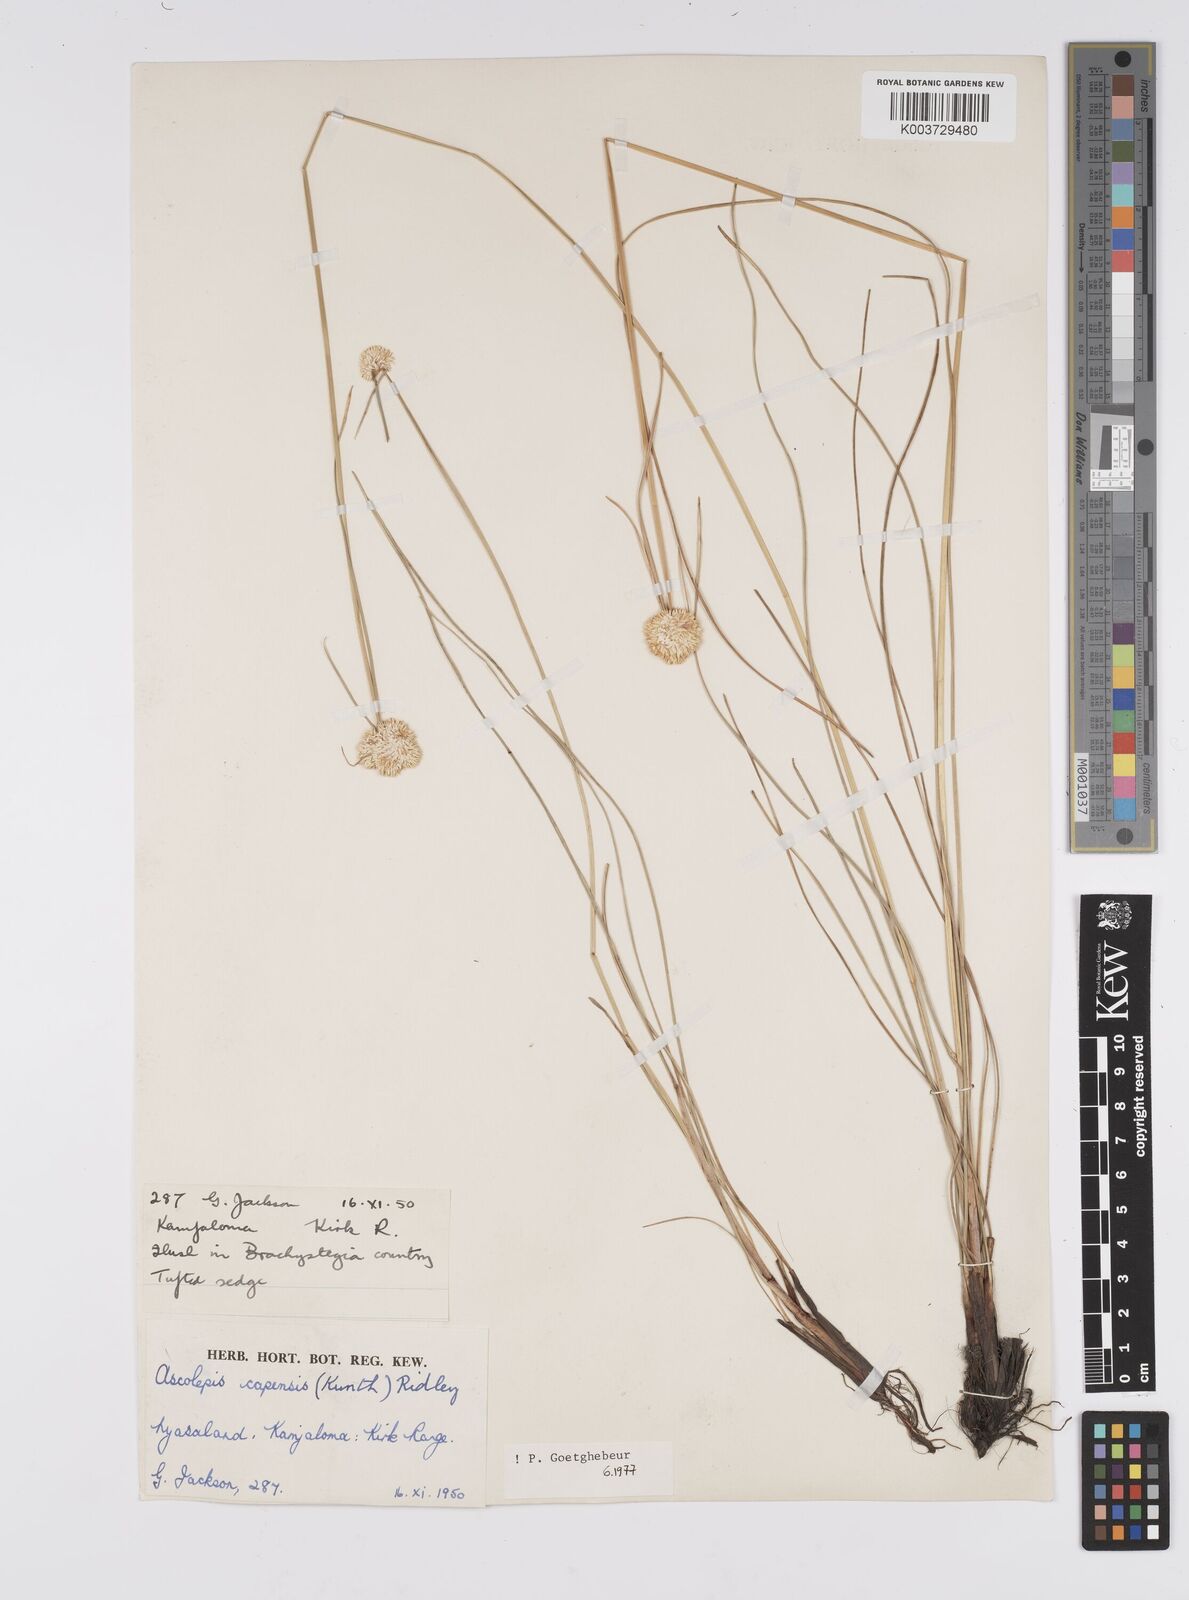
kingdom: Plantae
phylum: Tracheophyta
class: Liliopsida
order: Poales
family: Cyperaceae
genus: Cyperus
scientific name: Cyperus
